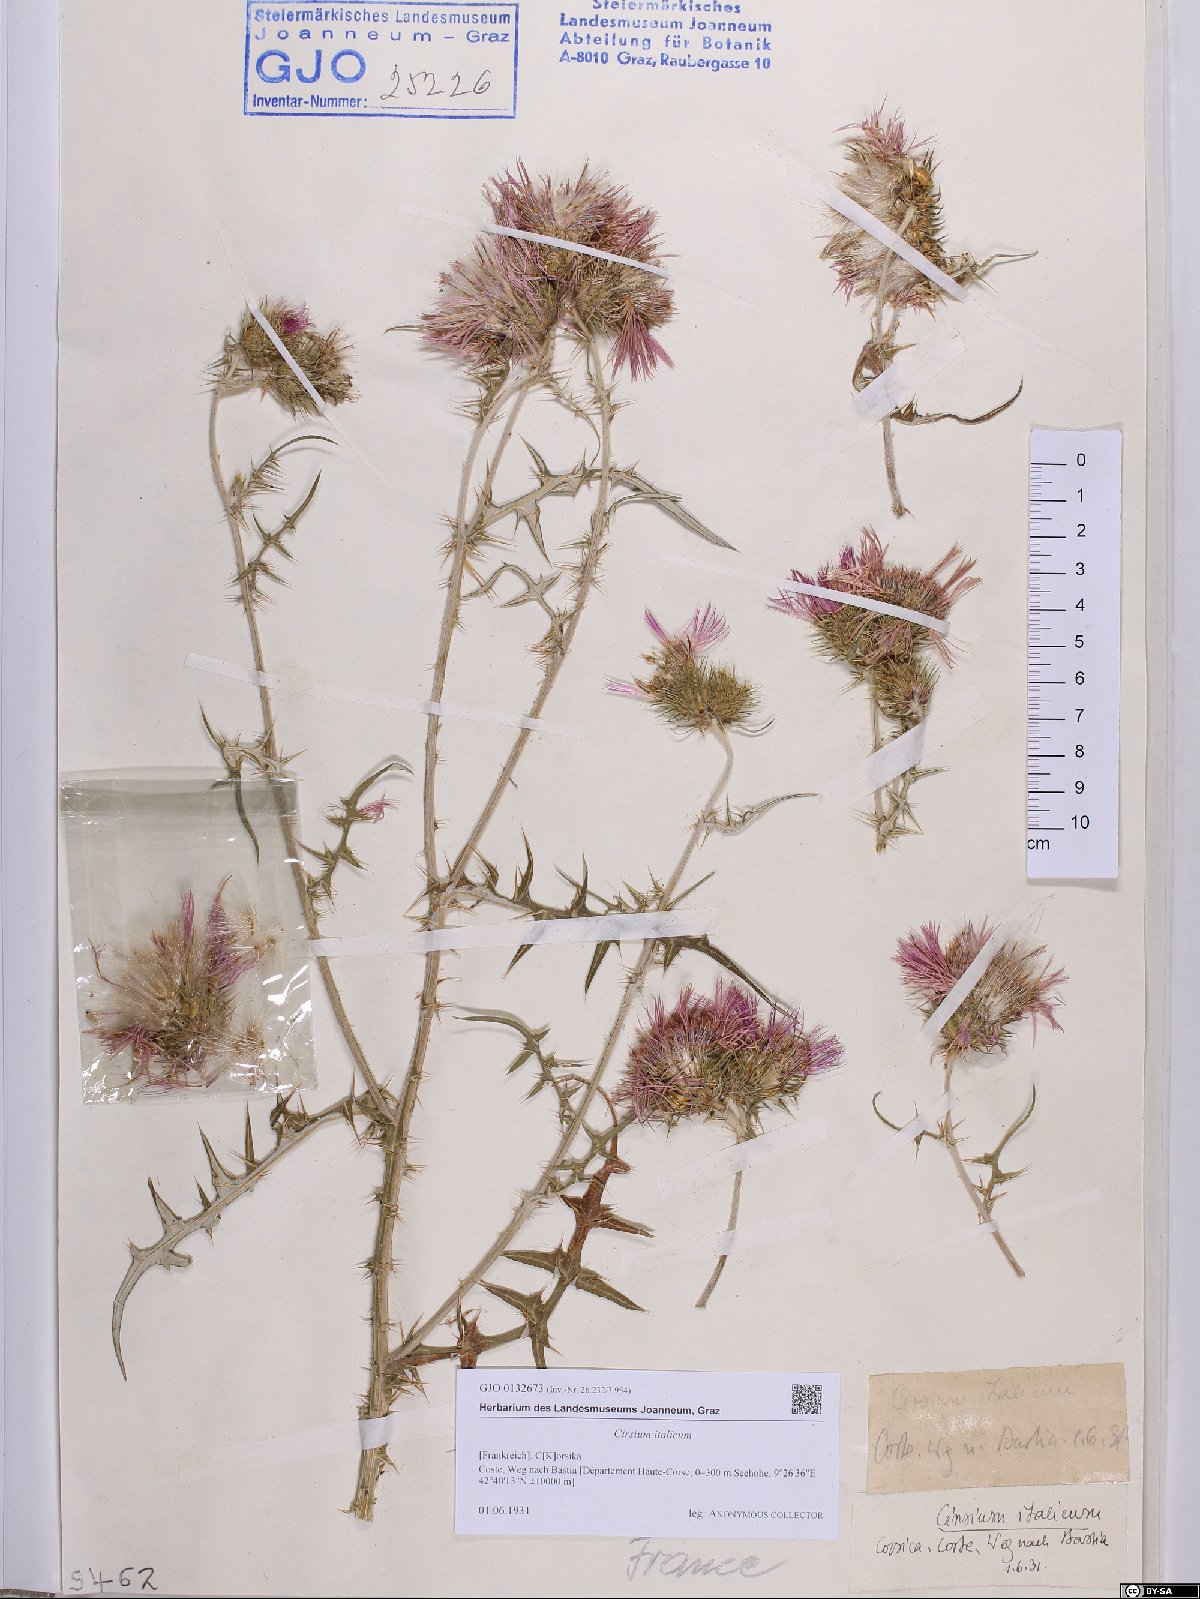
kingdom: Plantae
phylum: Tracheophyta
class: Magnoliopsida
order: Asterales
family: Asteraceae
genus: Epitrachys
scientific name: Epitrachys italica
